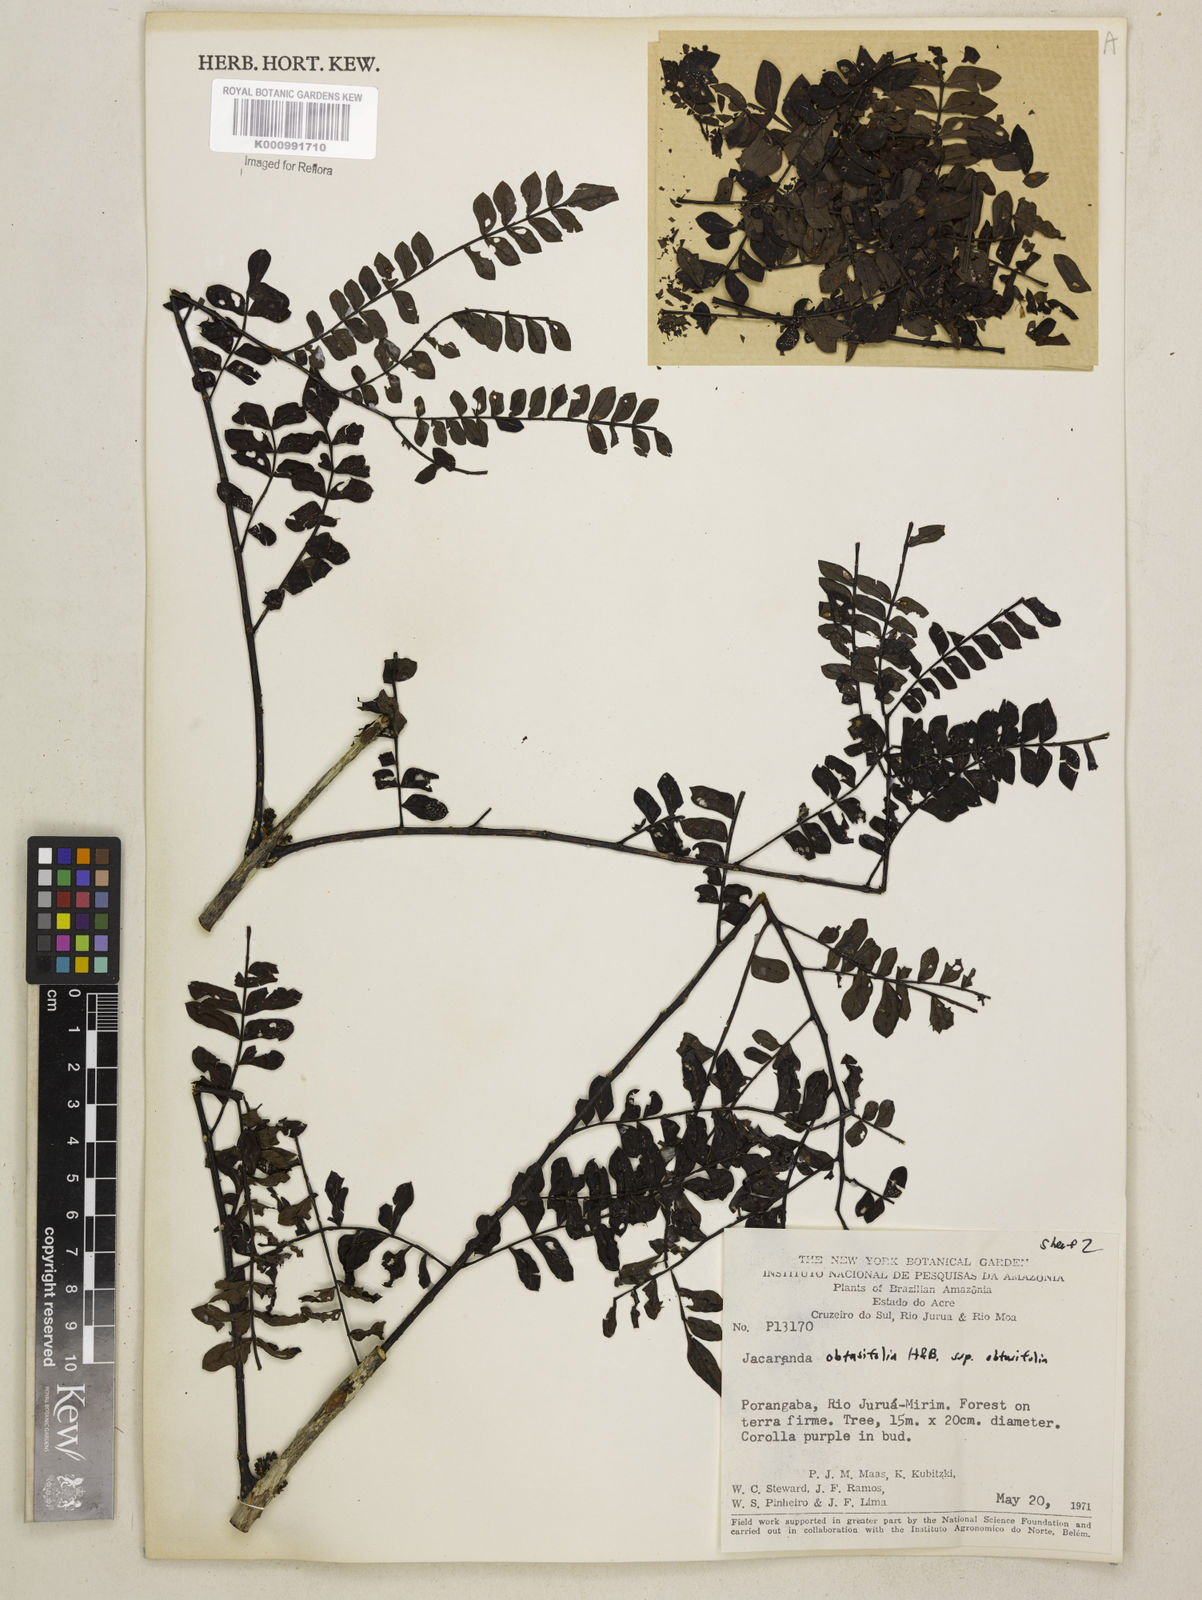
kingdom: Plantae
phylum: Tracheophyta
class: Magnoliopsida
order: Lamiales
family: Bignoniaceae
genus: Jacaranda
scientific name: Jacaranda obtusifolia
